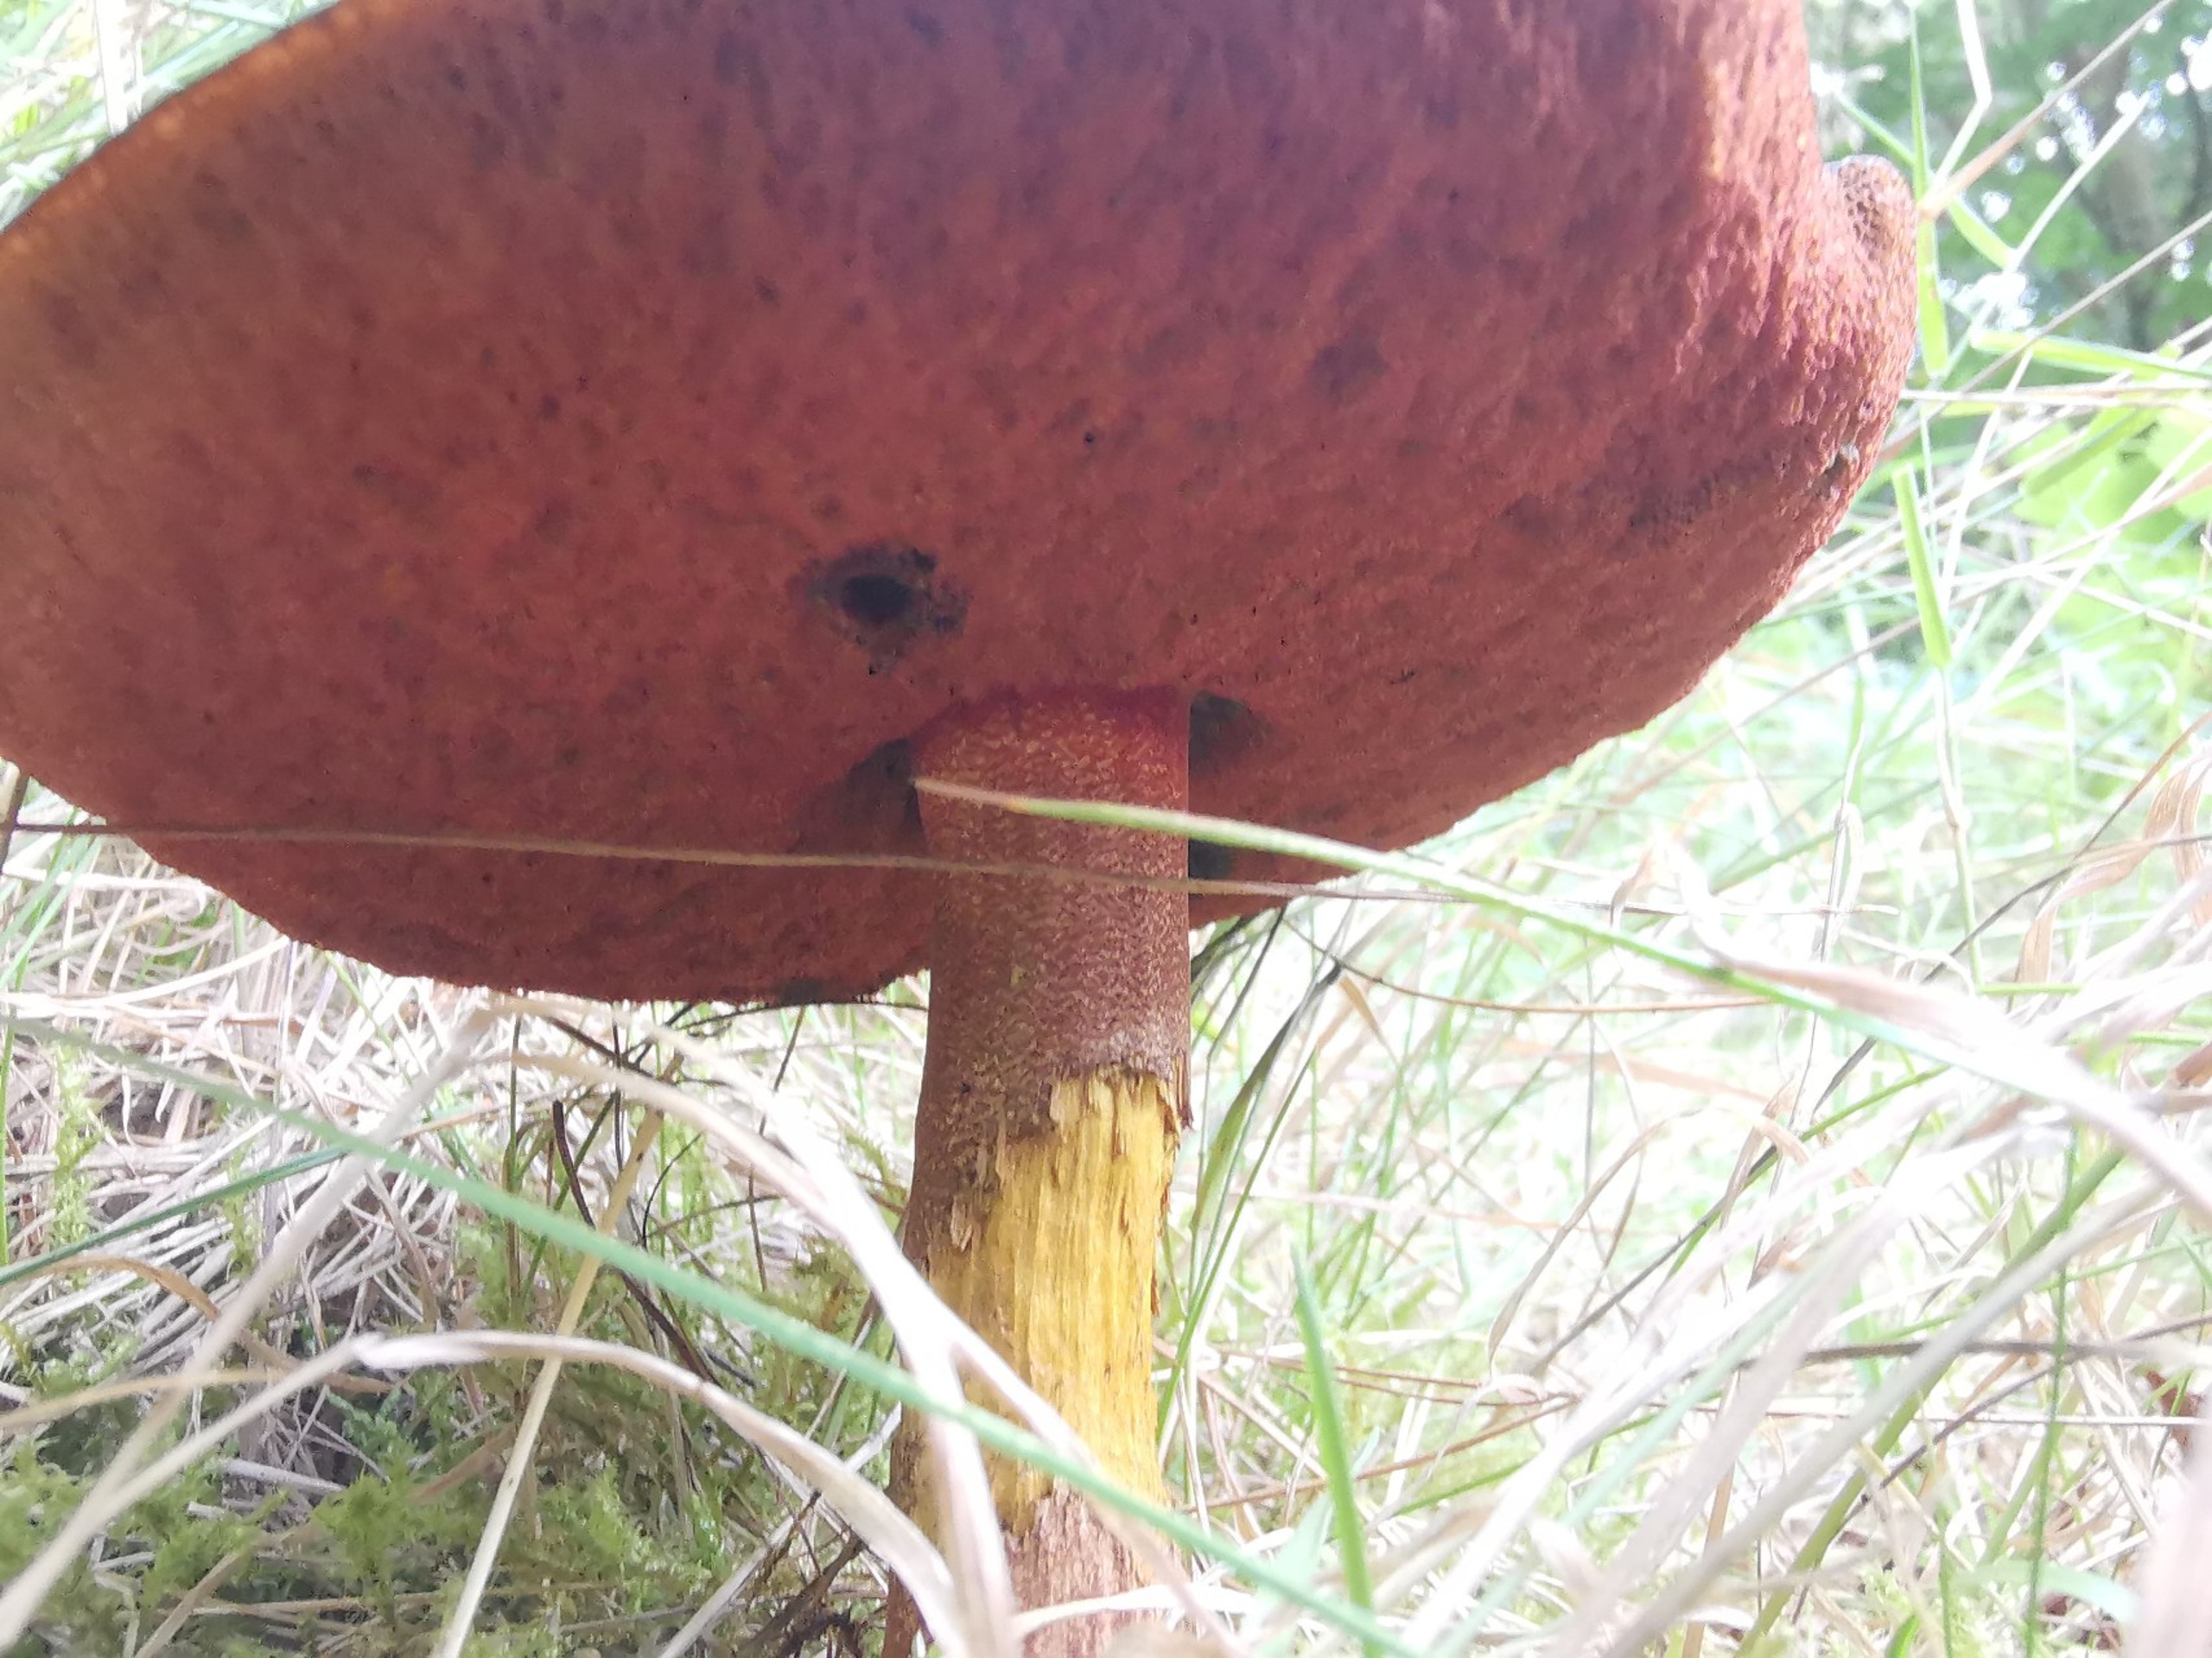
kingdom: Fungi
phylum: Basidiomycota
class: Agaricomycetes
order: Boletales
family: Boletaceae
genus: Neoboletus
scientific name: Neoboletus luridiformis
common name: Punktstokket indigorørhat
